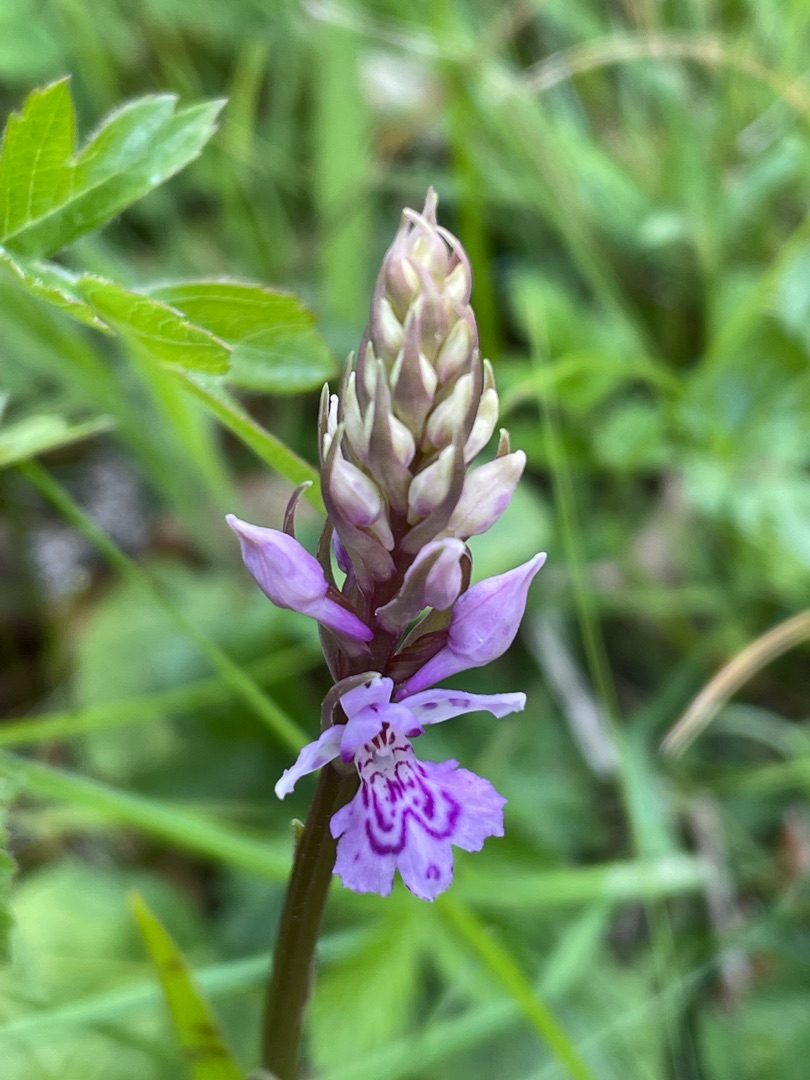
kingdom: Plantae
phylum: Tracheophyta
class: Liliopsida
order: Asparagales
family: Orchidaceae
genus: Dactylorhiza
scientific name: Dactylorhiza maculata
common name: Skov-gøgeurt
